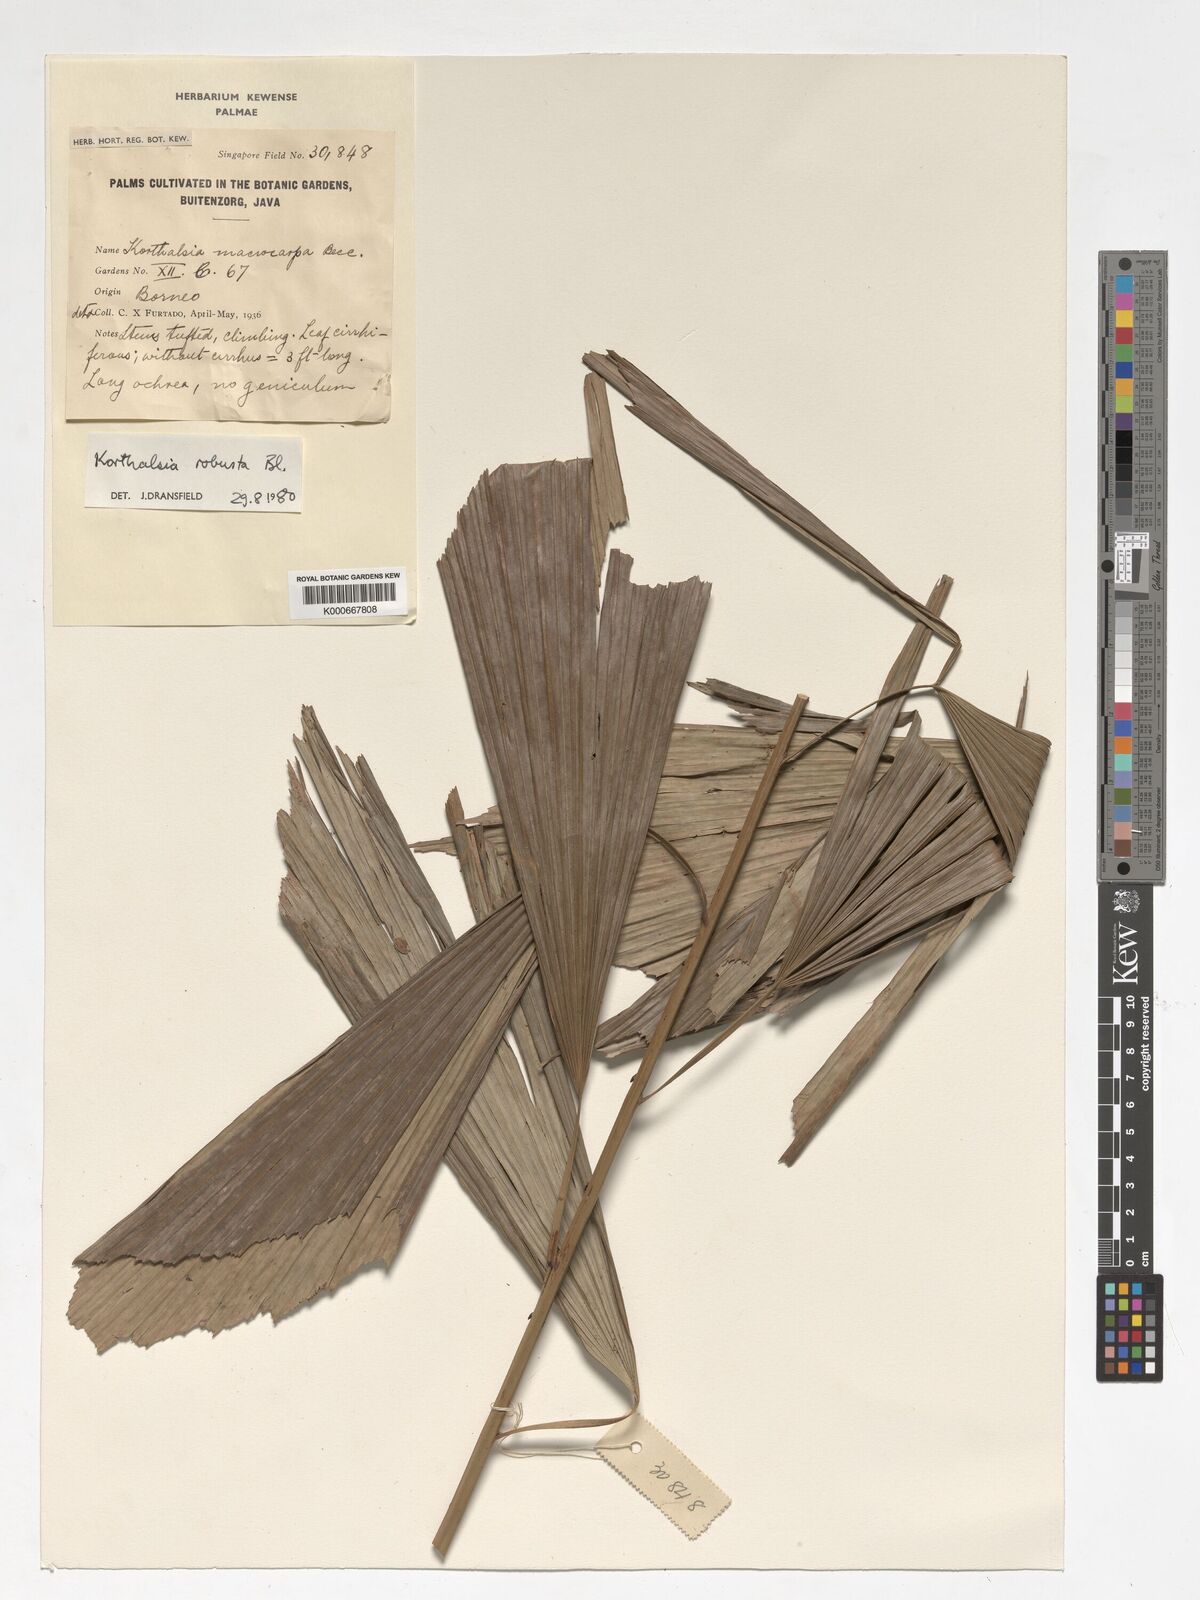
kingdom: Plantae
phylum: Tracheophyta
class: Liliopsida
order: Arecales
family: Arecaceae
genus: Korthalsia
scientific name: Korthalsia robusta
